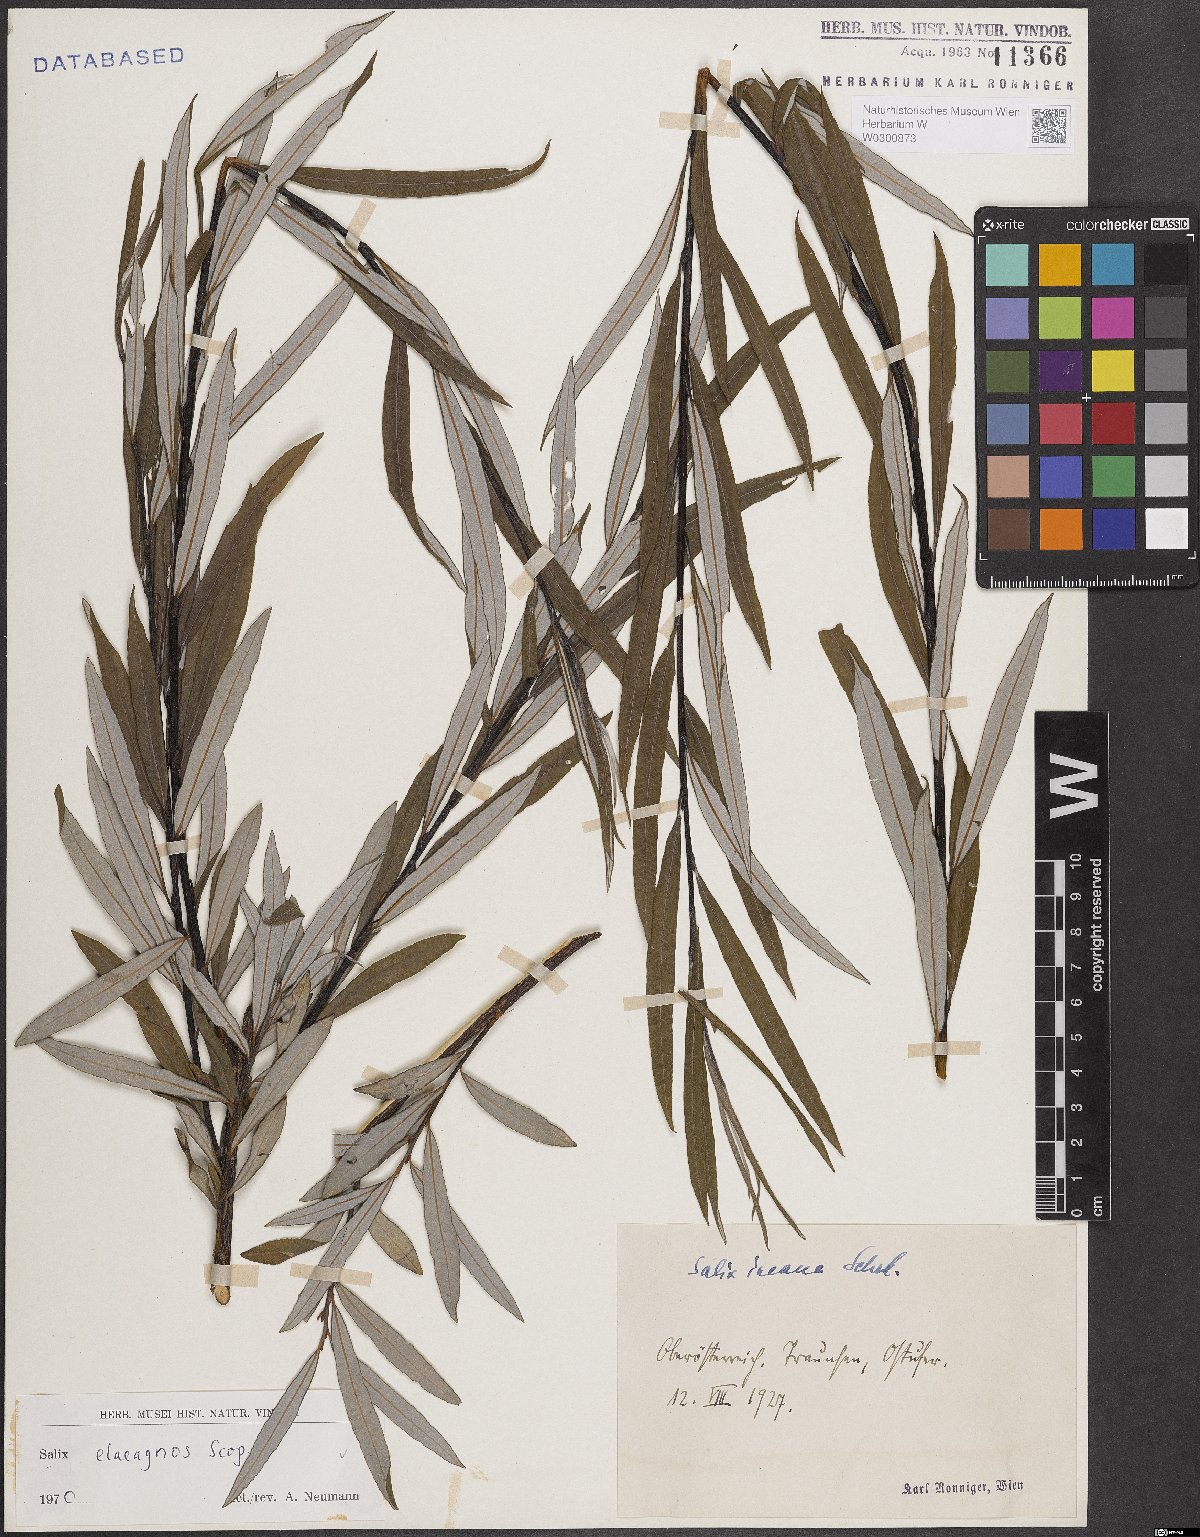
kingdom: Plantae
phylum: Tracheophyta
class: Magnoliopsida
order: Malpighiales
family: Salicaceae
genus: Salix
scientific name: Salix eleagnos
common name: Elaeagnus willow
